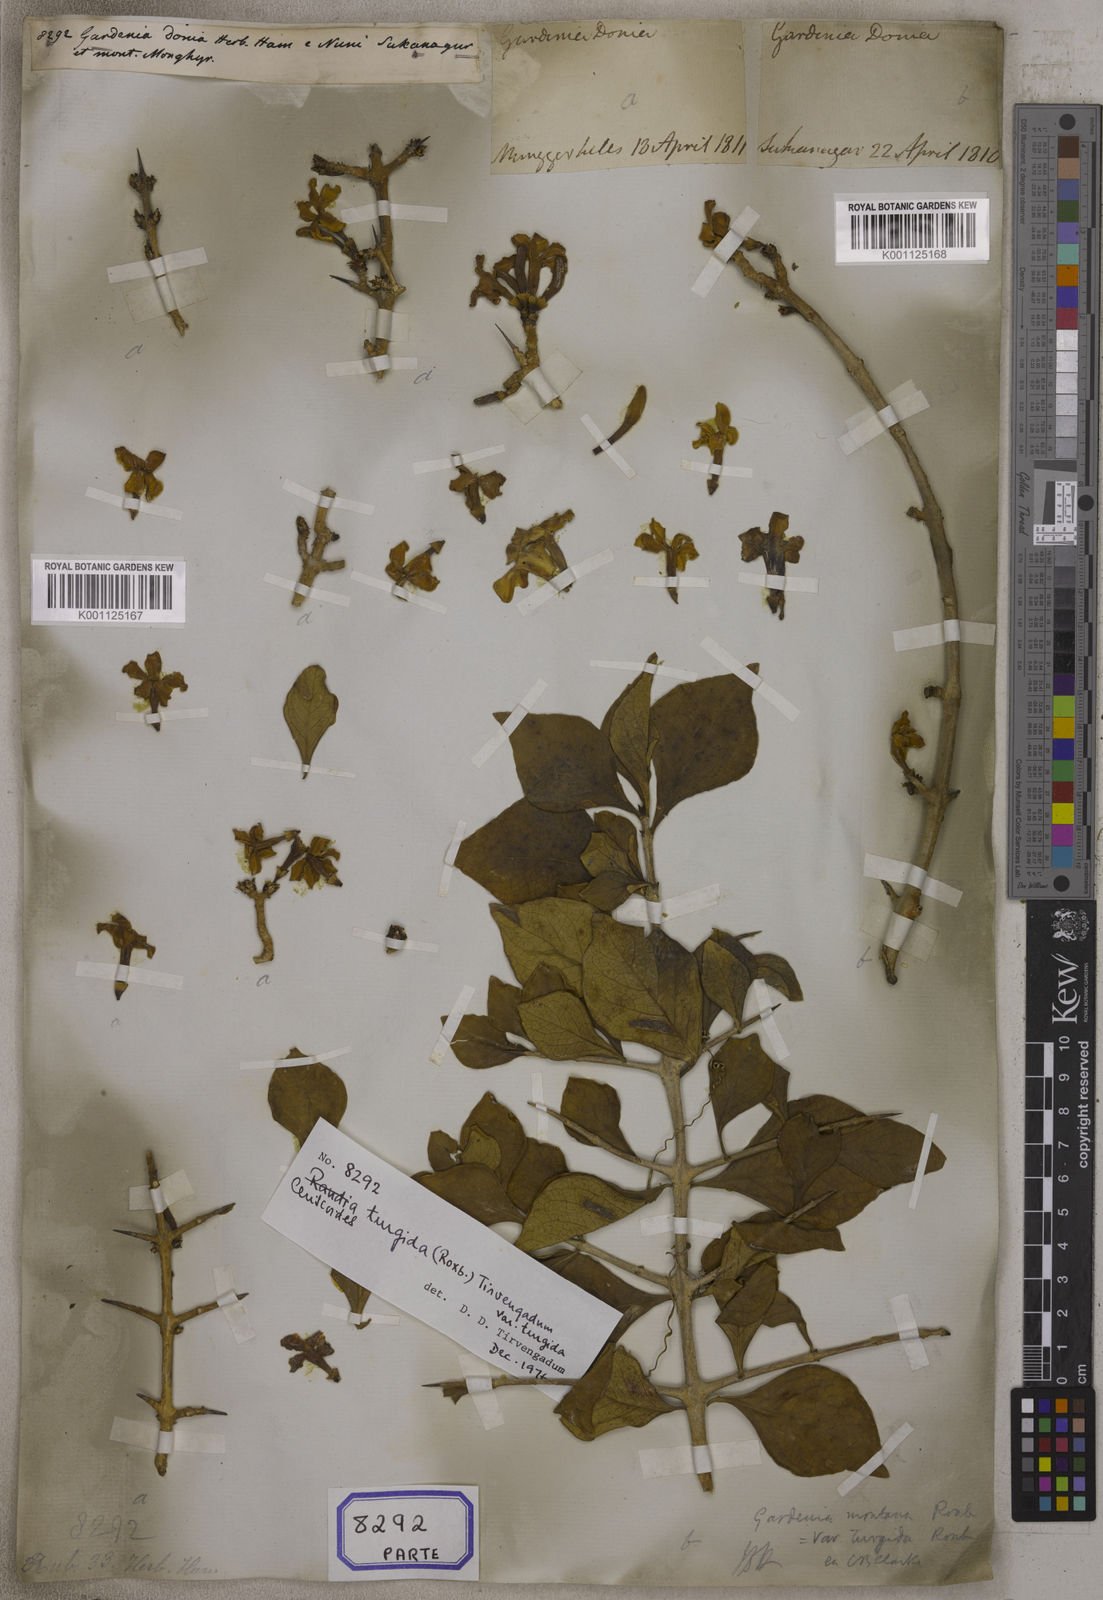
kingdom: Plantae
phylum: Tracheophyta
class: Magnoliopsida
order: Gentianales
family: Rubiaceae
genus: Gardenia
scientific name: Gardenia
